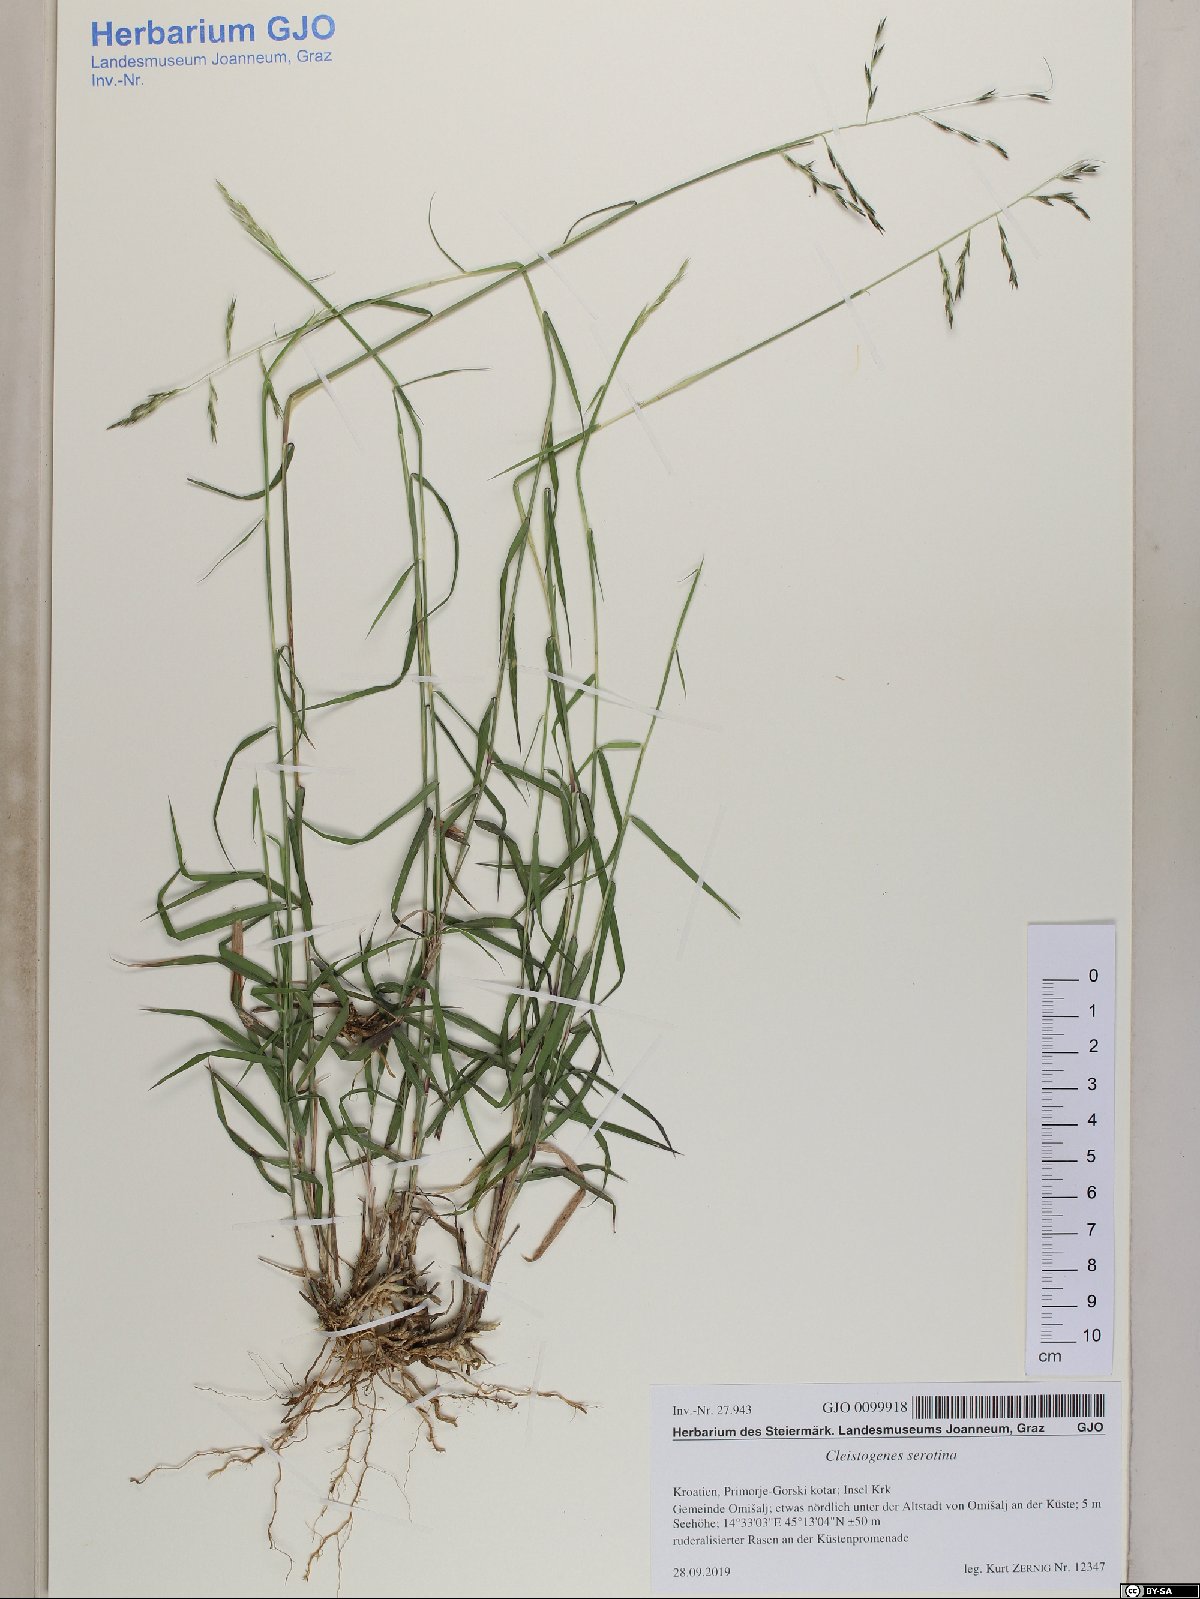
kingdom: Plantae
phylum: Tracheophyta
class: Liliopsida
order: Poales
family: Poaceae
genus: Cleistogenes
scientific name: Cleistogenes serotina
